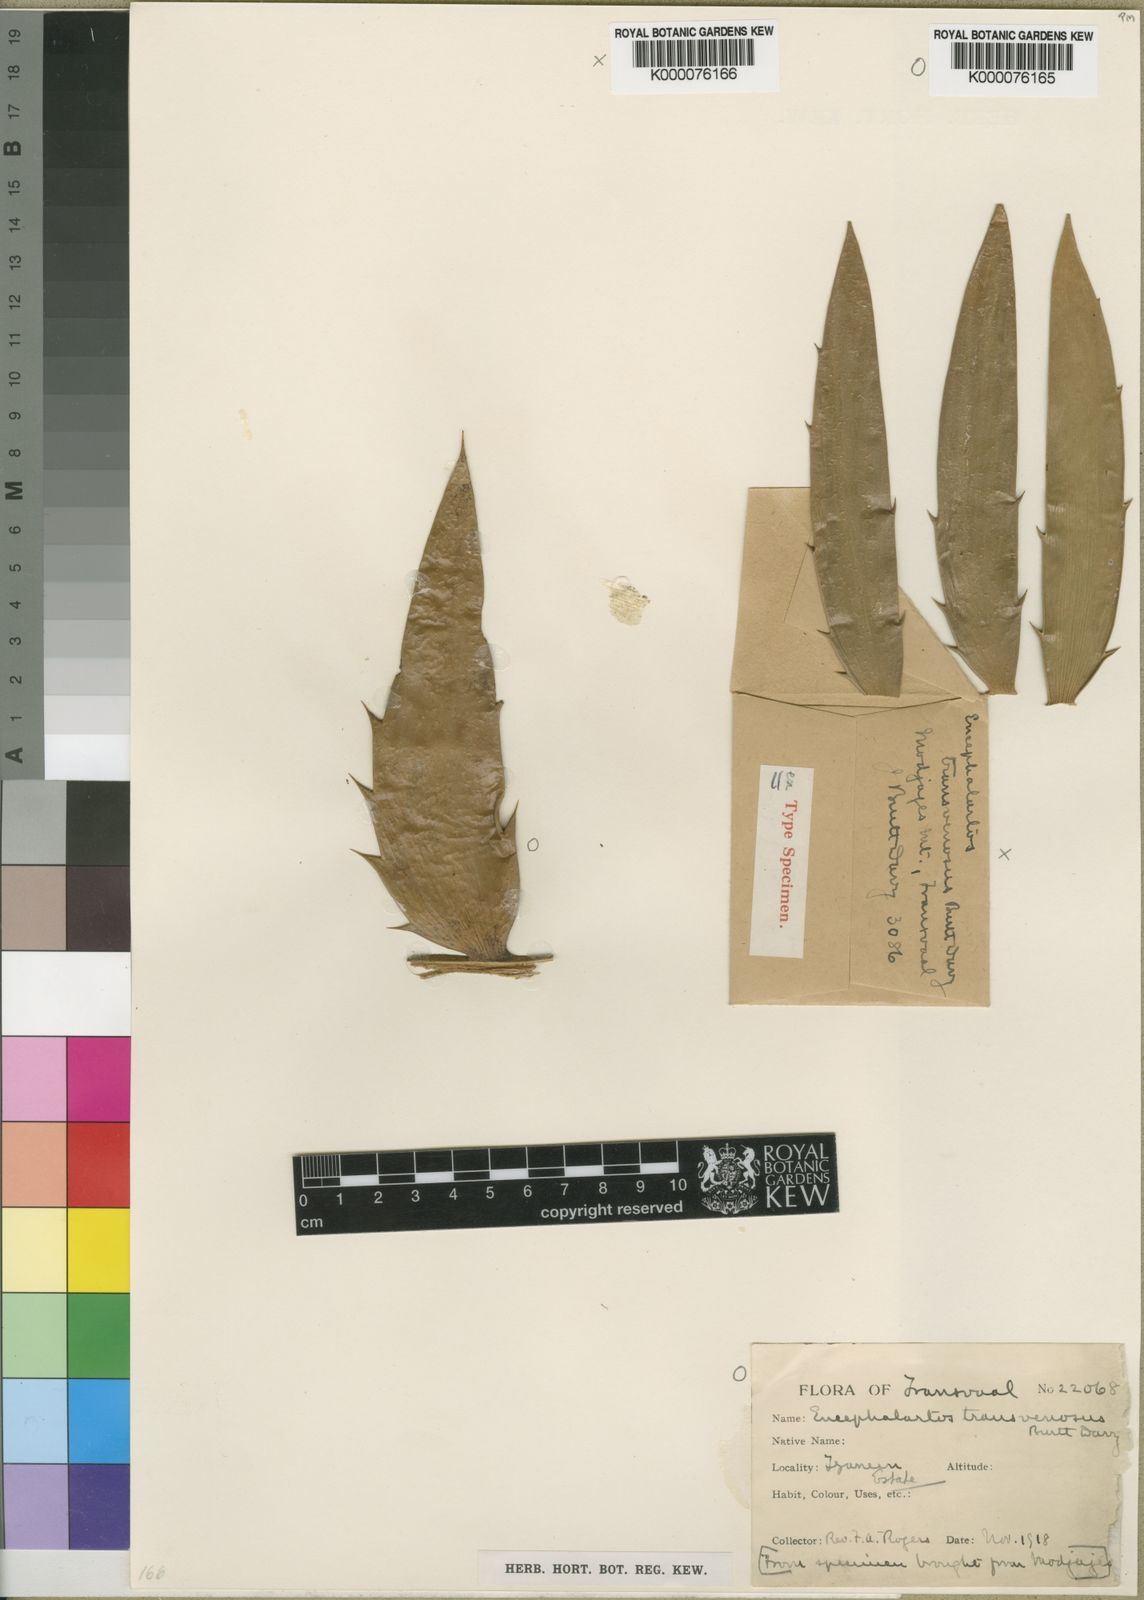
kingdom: Plantae
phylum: Tracheophyta
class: Cycadopsida
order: Cycadales
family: Zamiaceae
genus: Encephalartos
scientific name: Encephalartos transvenosus
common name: Modjadji cycad
